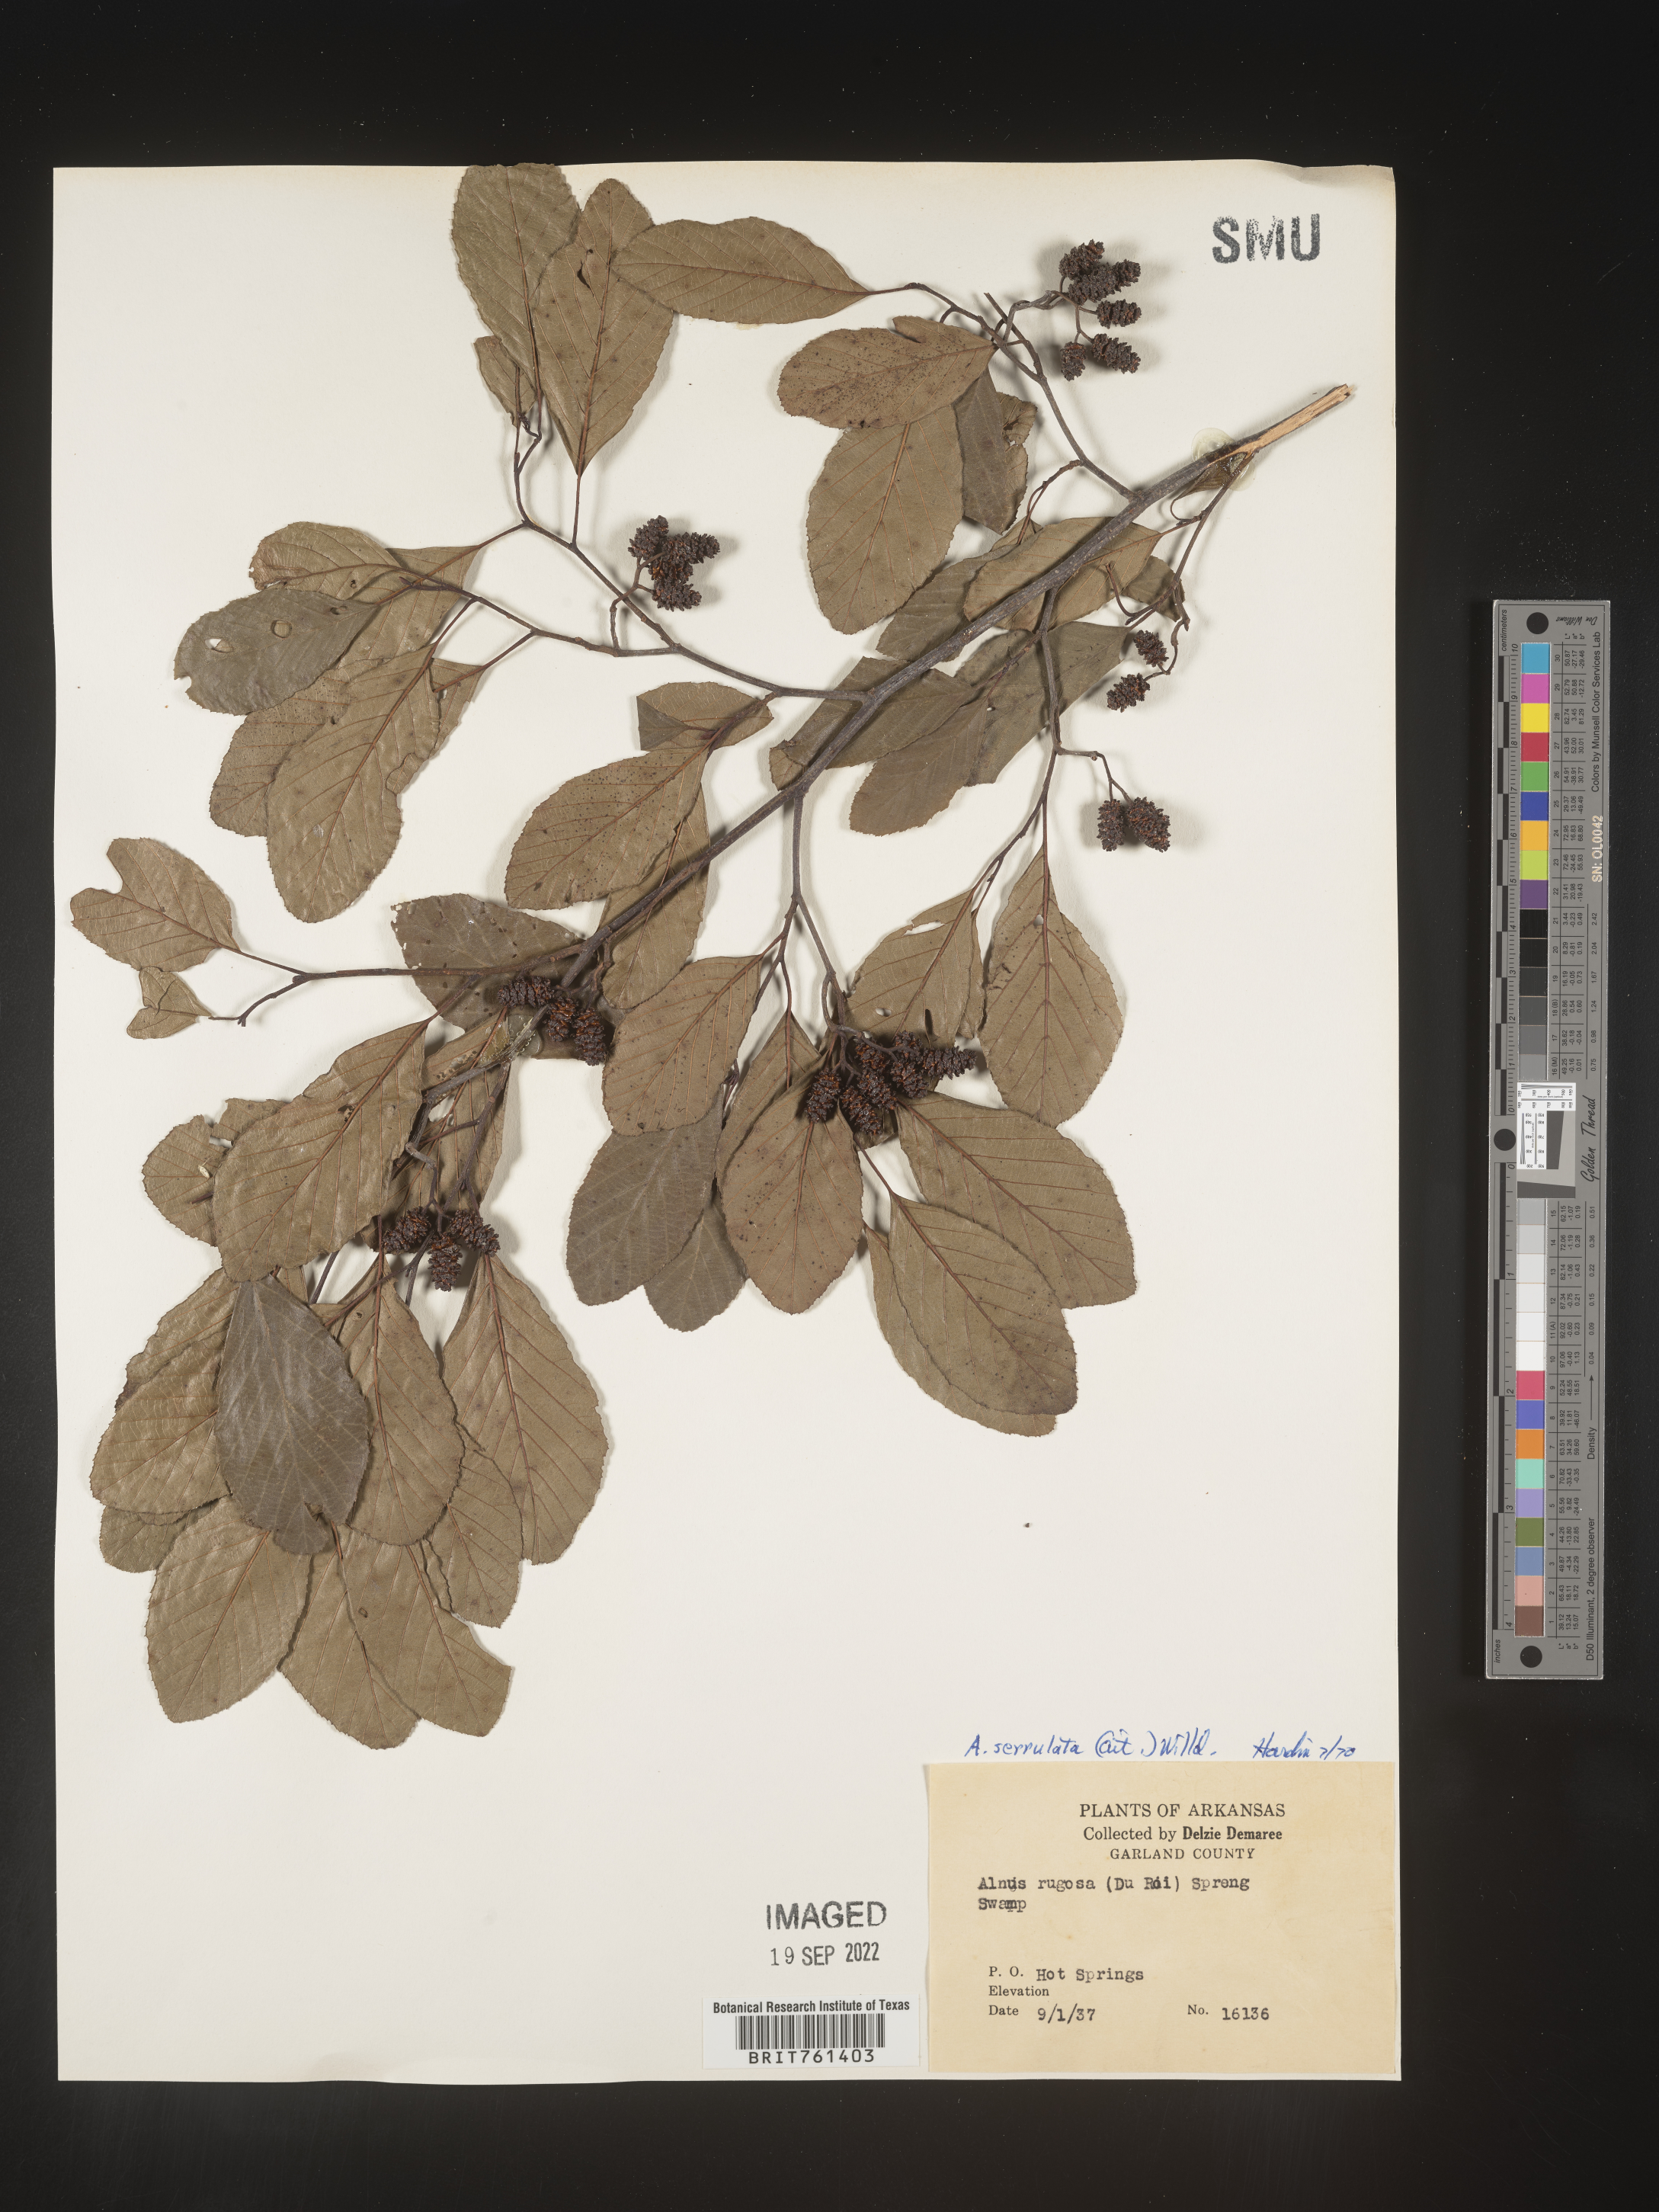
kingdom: Plantae
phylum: Tracheophyta
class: Magnoliopsida
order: Fagales
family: Betulaceae
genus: Alnus
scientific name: Alnus serrulata
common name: Hazel alder
